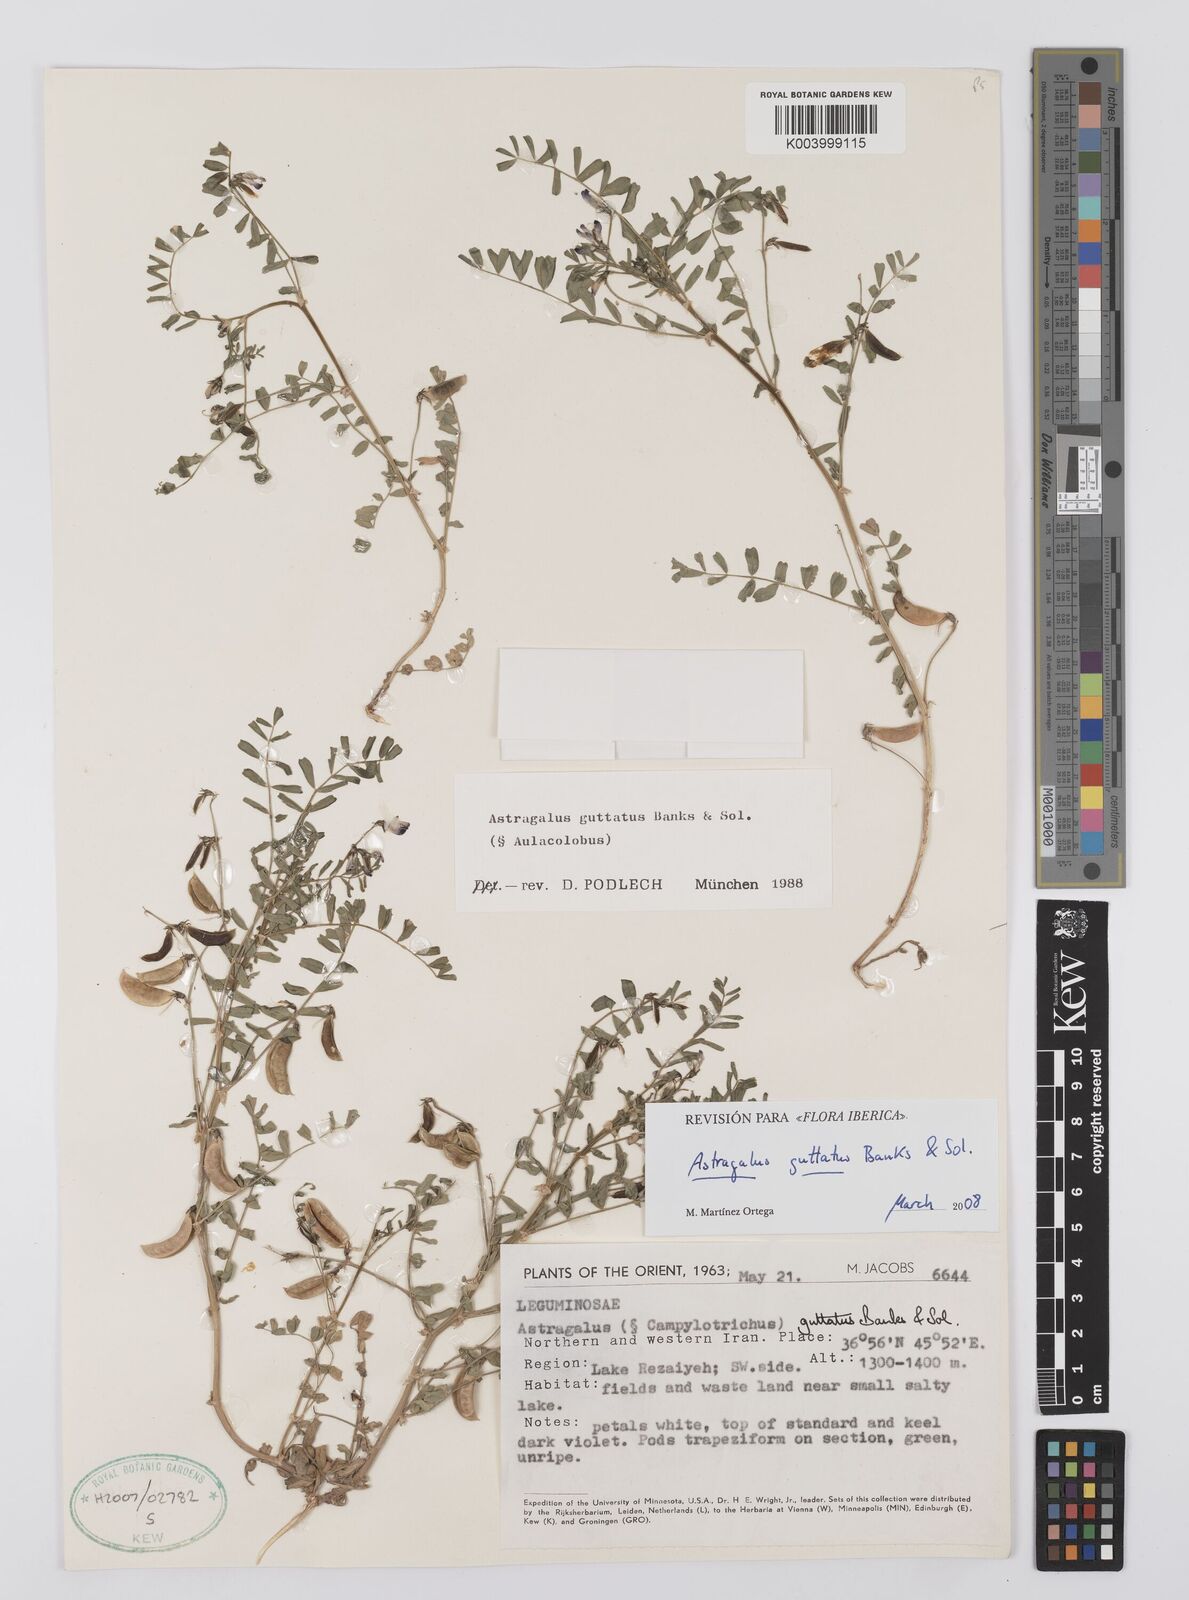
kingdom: Plantae
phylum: Tracheophyta
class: Magnoliopsida
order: Fabales
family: Fabaceae
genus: Astragalus
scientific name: Astragalus guttatus
